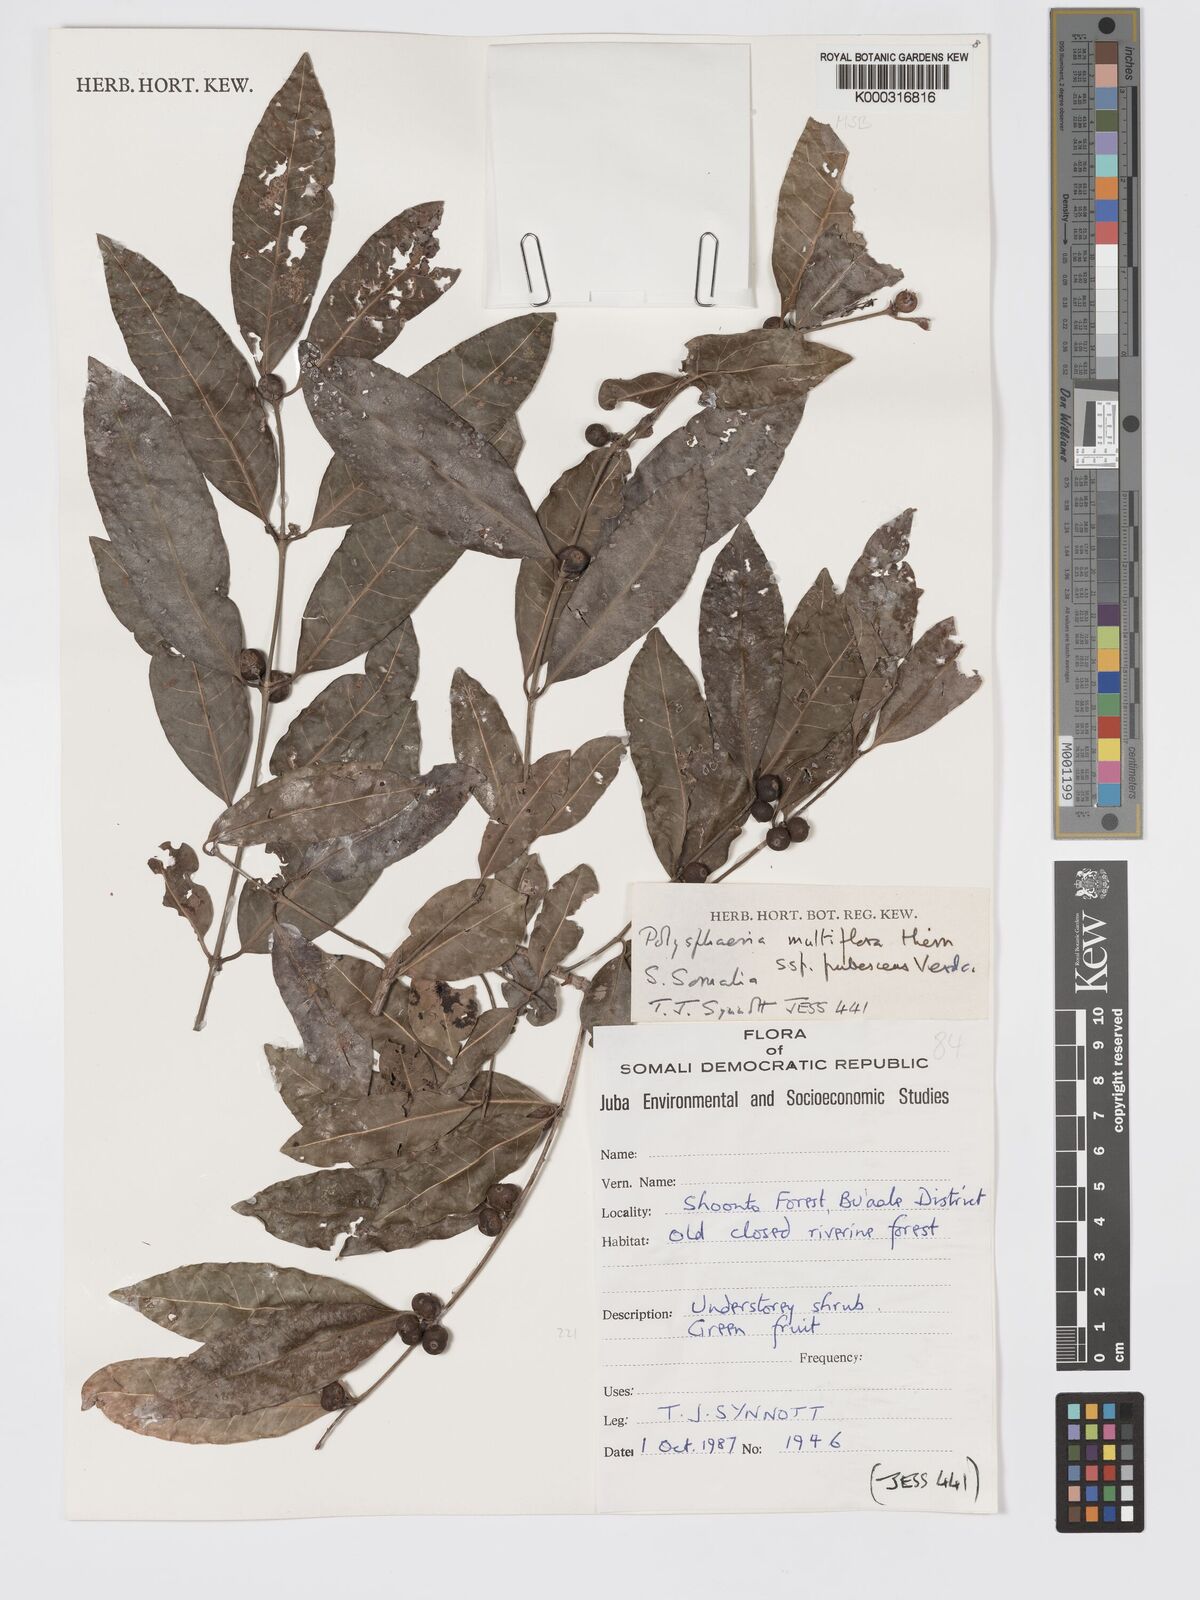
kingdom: Plantae
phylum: Tracheophyta
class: Magnoliopsida
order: Gentianales
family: Rubiaceae
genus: Polysphaeria
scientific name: Polysphaeria multiflora
